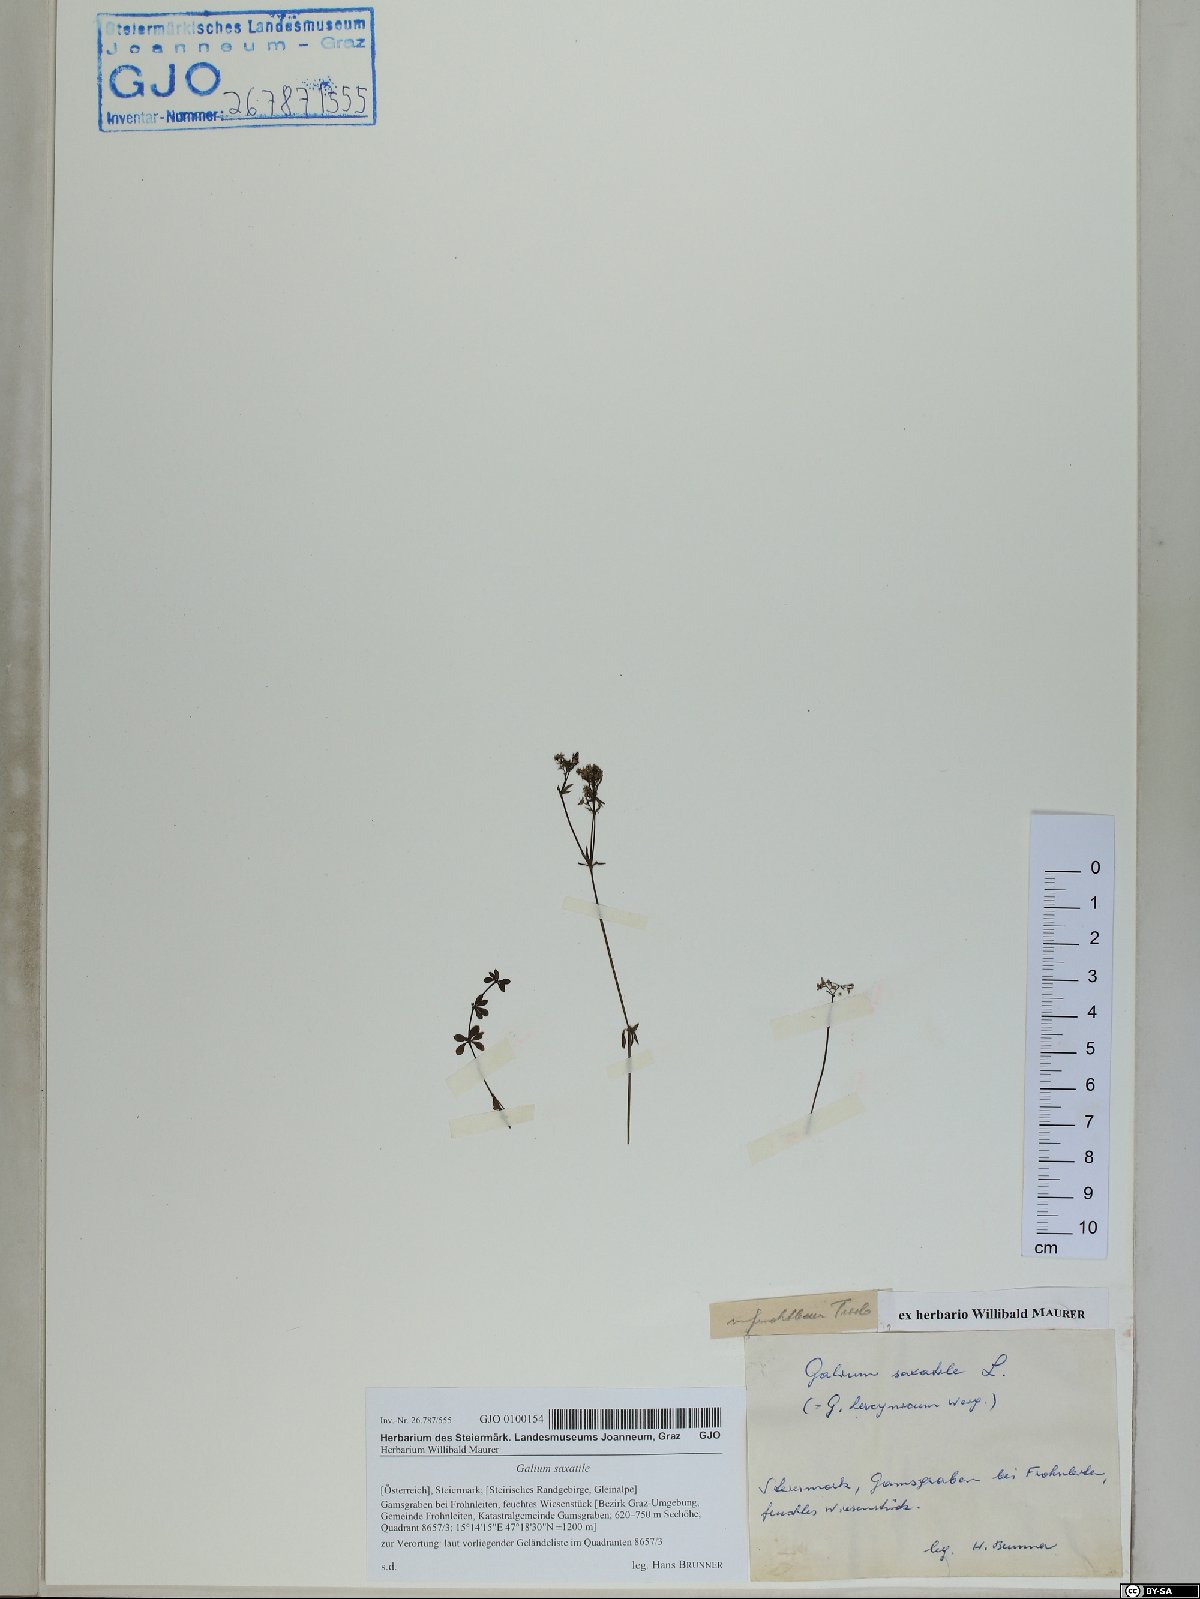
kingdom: Plantae
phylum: Tracheophyta
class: Magnoliopsida
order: Gentianales
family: Rubiaceae
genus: Galium
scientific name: Galium saxatile
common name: Heath bedstraw
